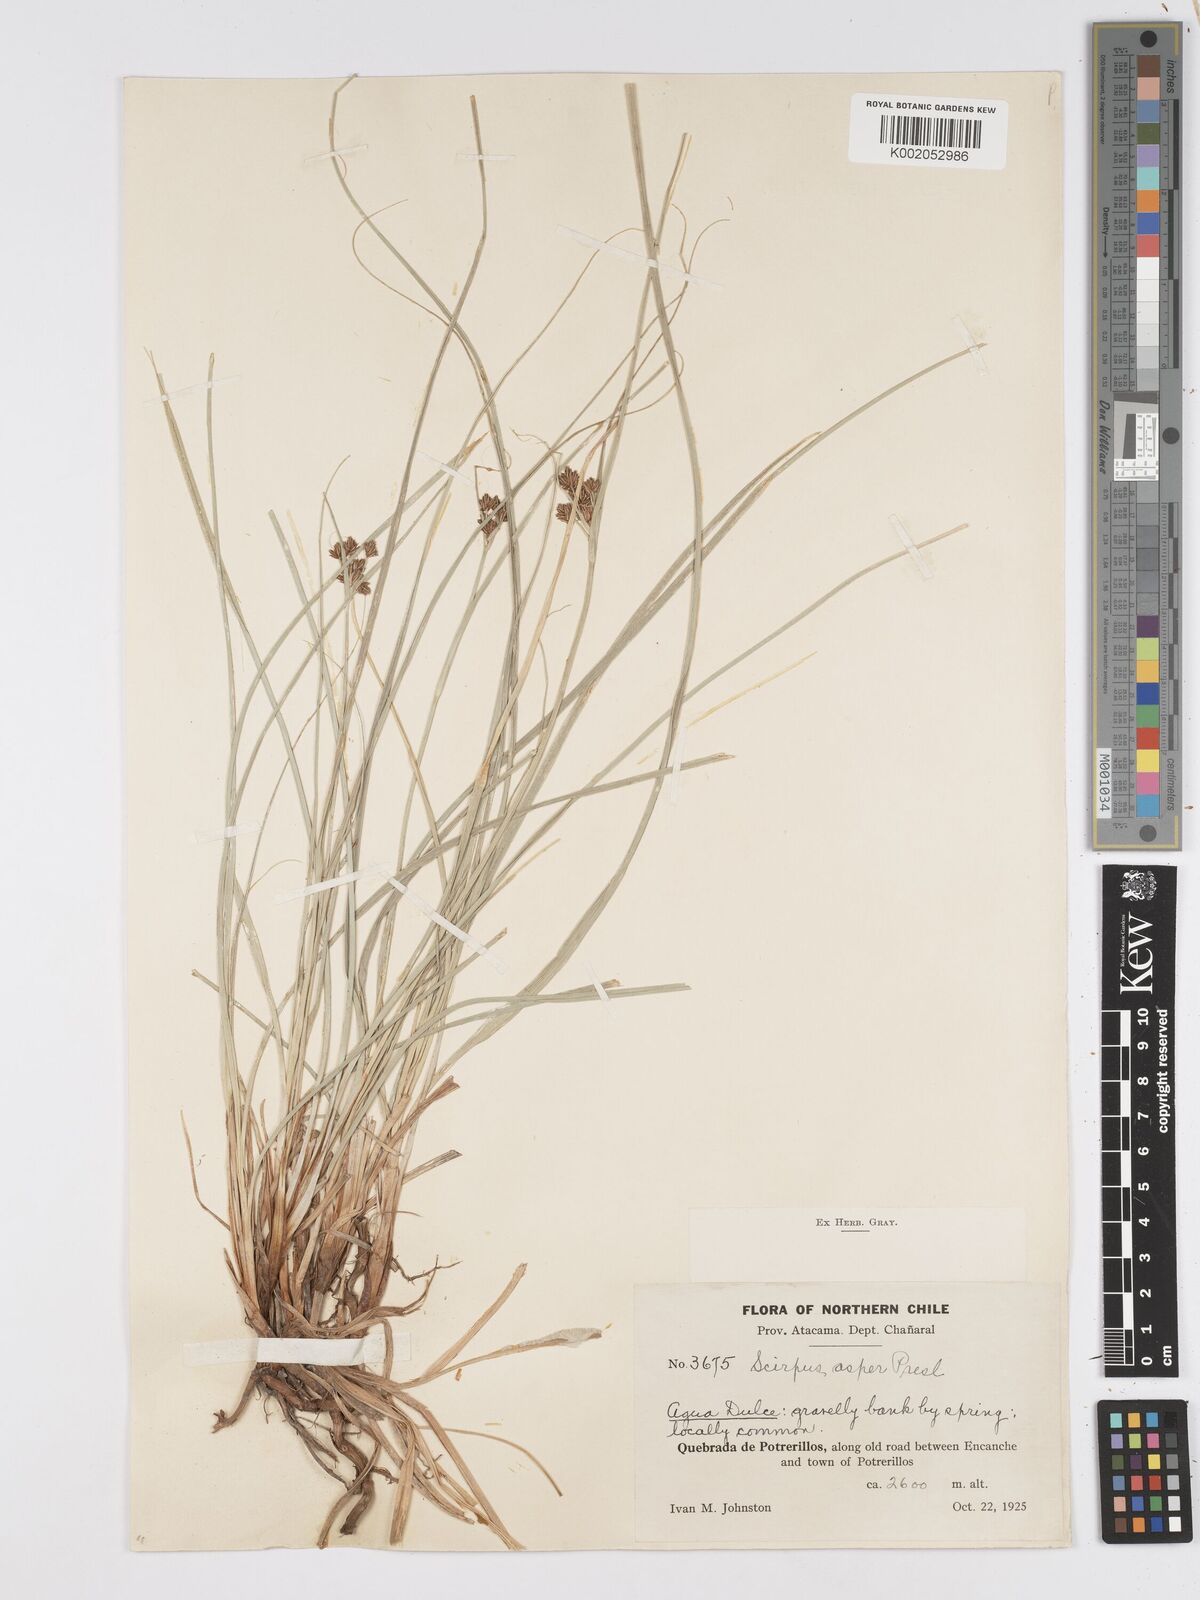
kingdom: Plantae
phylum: Tracheophyta
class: Liliopsida
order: Poales
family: Cyperaceae
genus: Rhodoscirpus
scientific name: Rhodoscirpus asper
